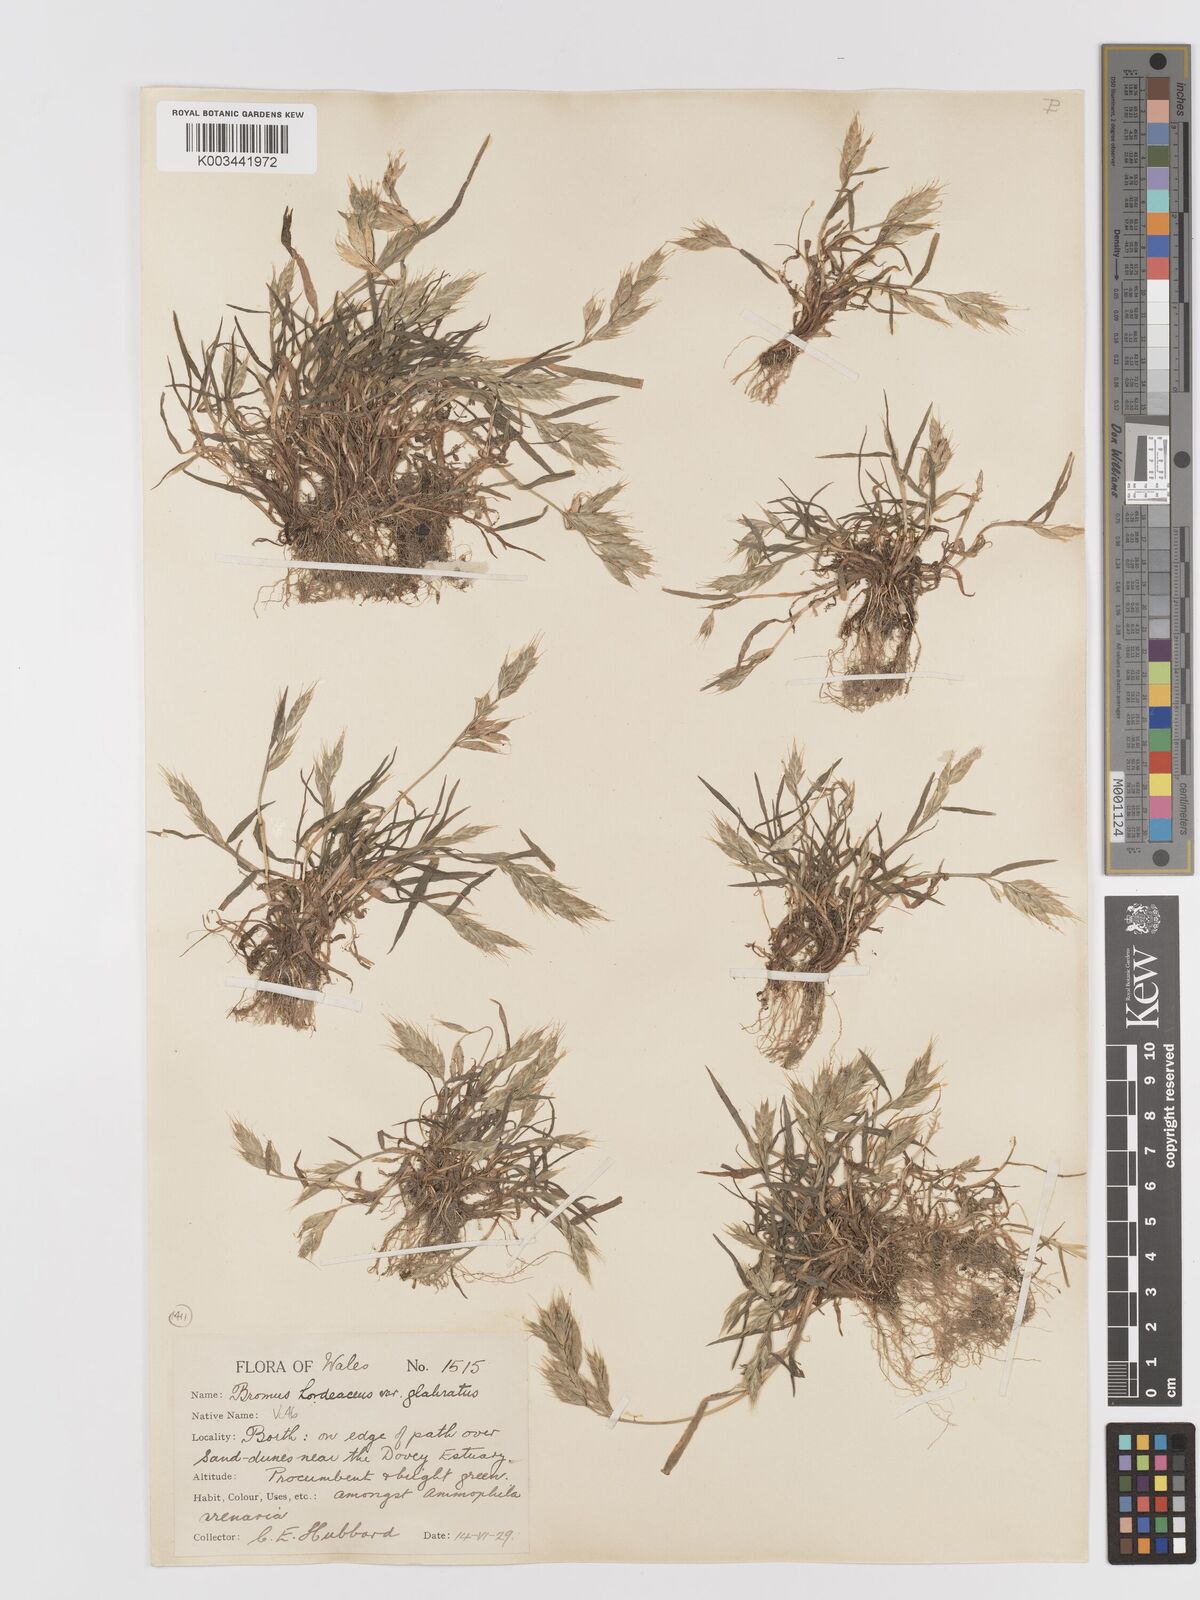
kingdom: Plantae
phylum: Tracheophyta
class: Liliopsida
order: Poales
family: Poaceae
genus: Bromus
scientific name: Bromus hordeaceus
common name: Soft brome
